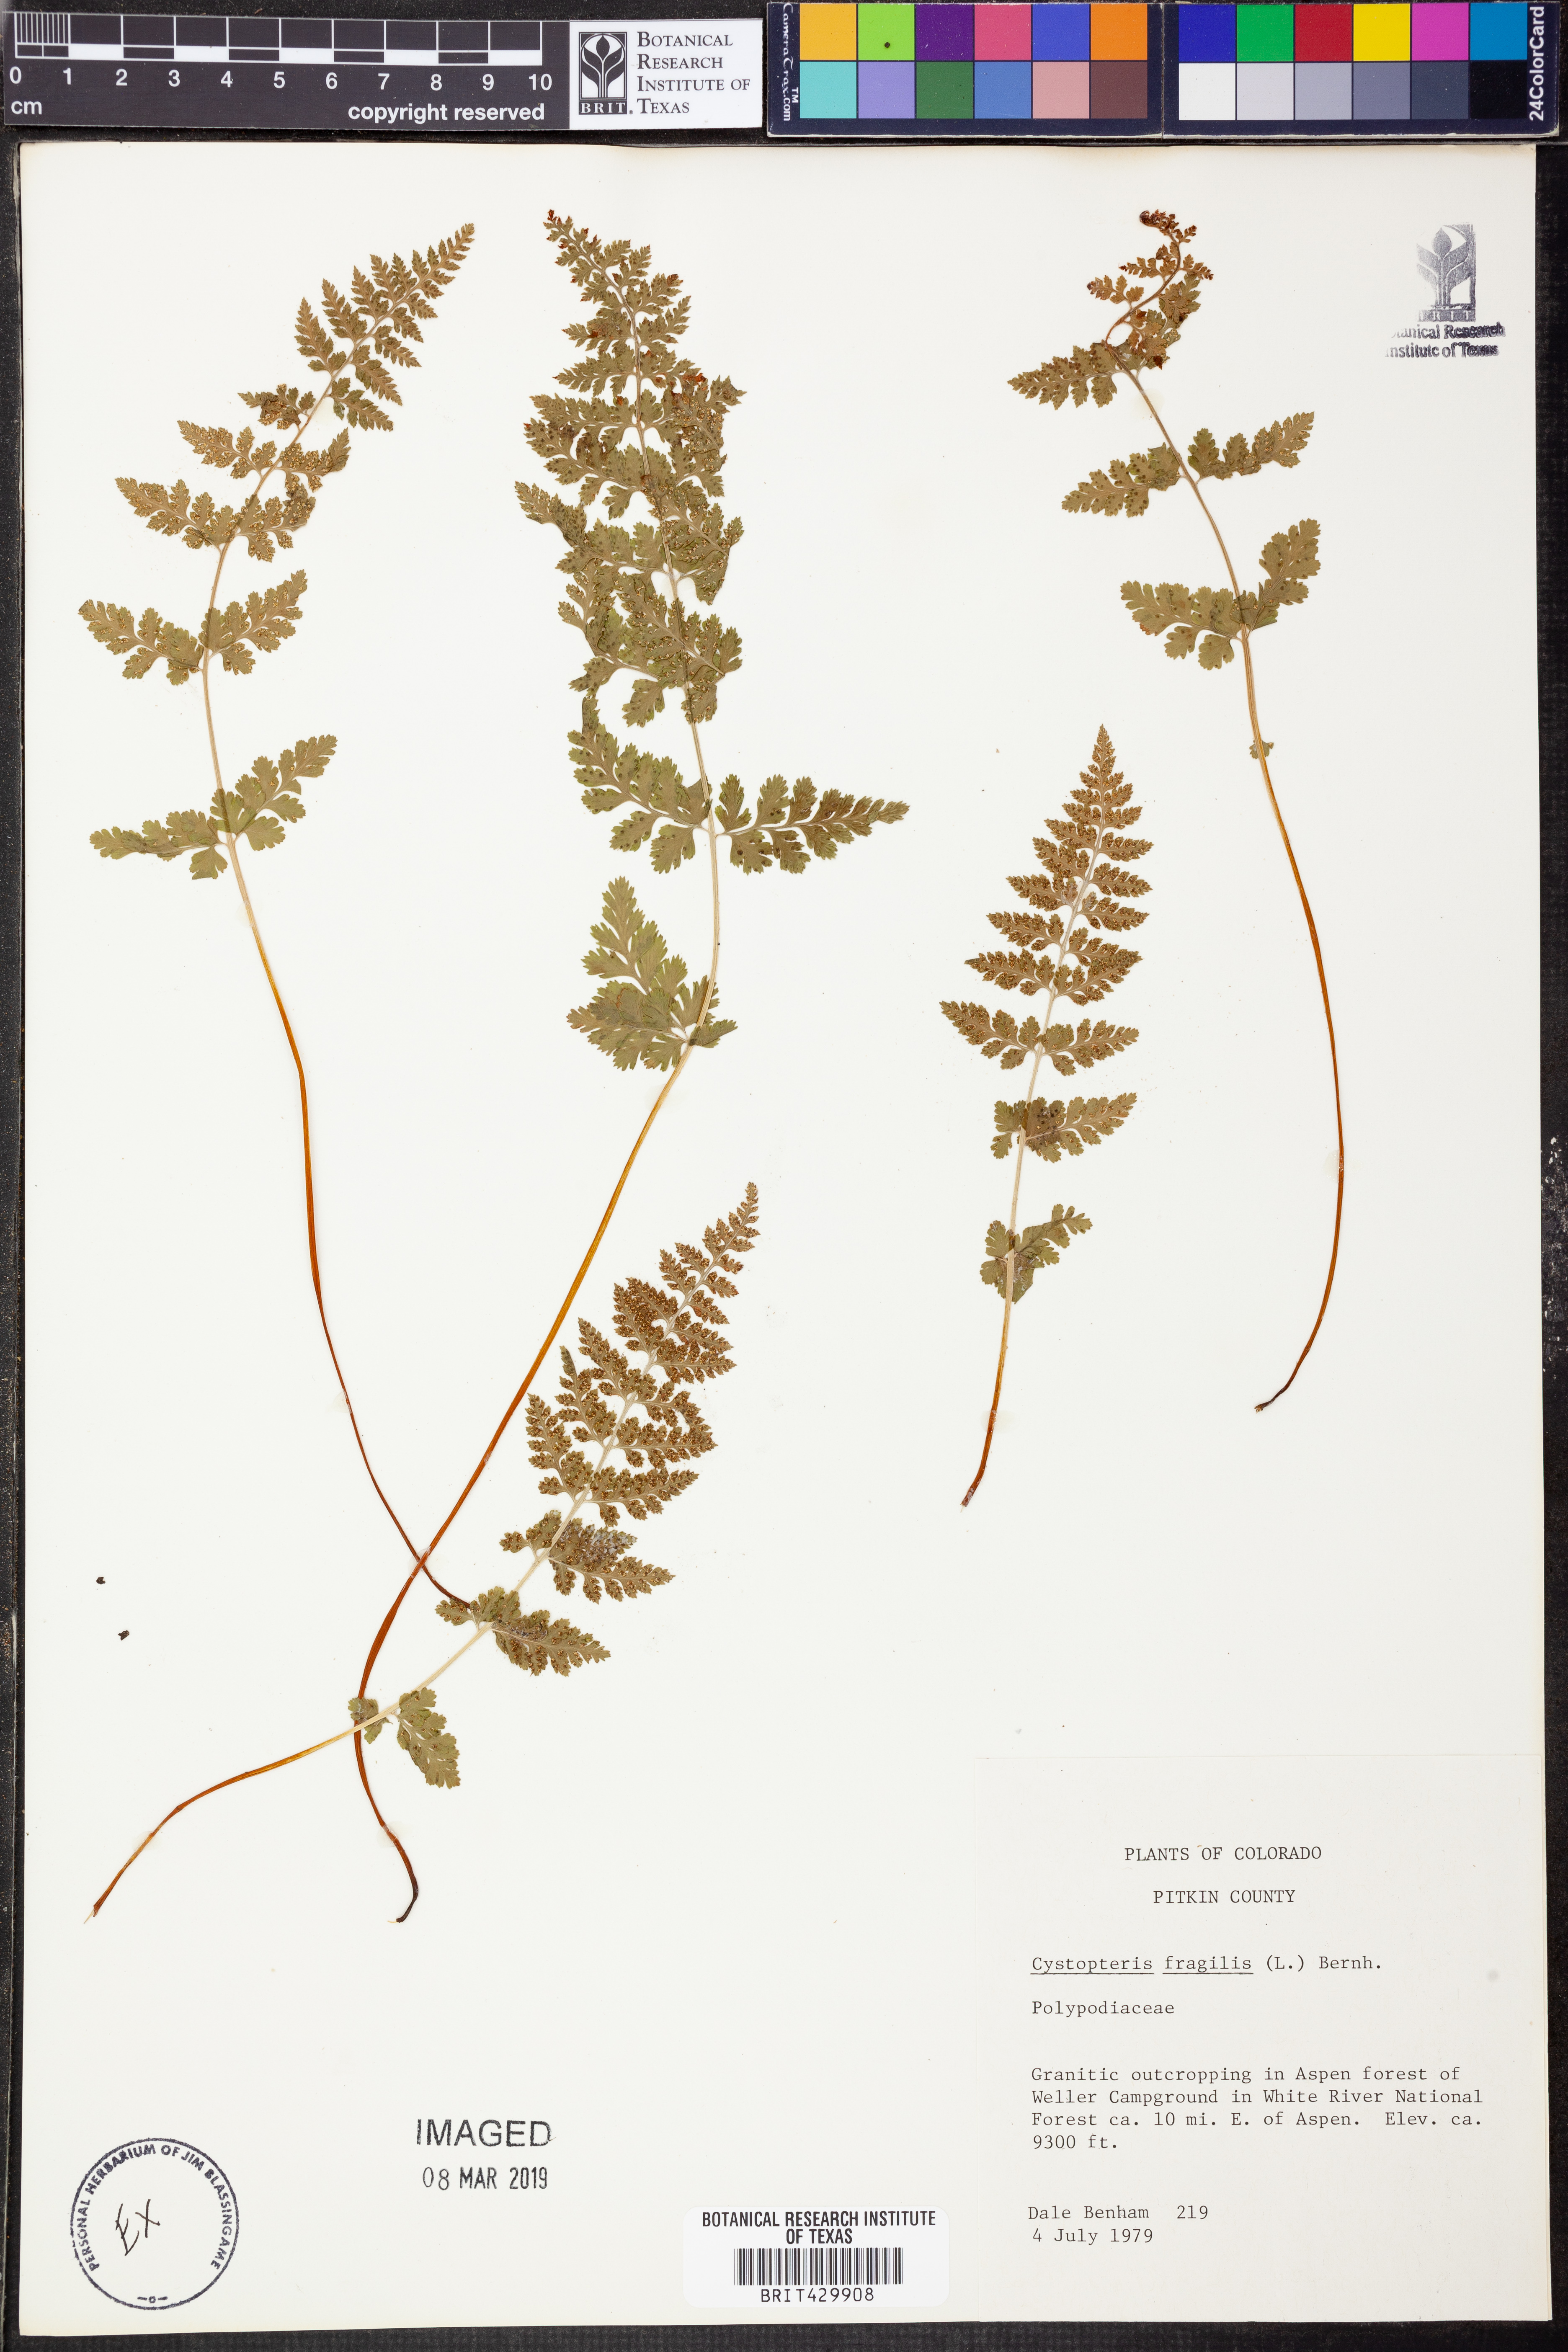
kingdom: Plantae
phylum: Tracheophyta
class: Polypodiopsida
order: Polypodiales
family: Cystopteridaceae
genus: Cystopteris
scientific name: Cystopteris fragilis
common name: Brittle bladder fern
